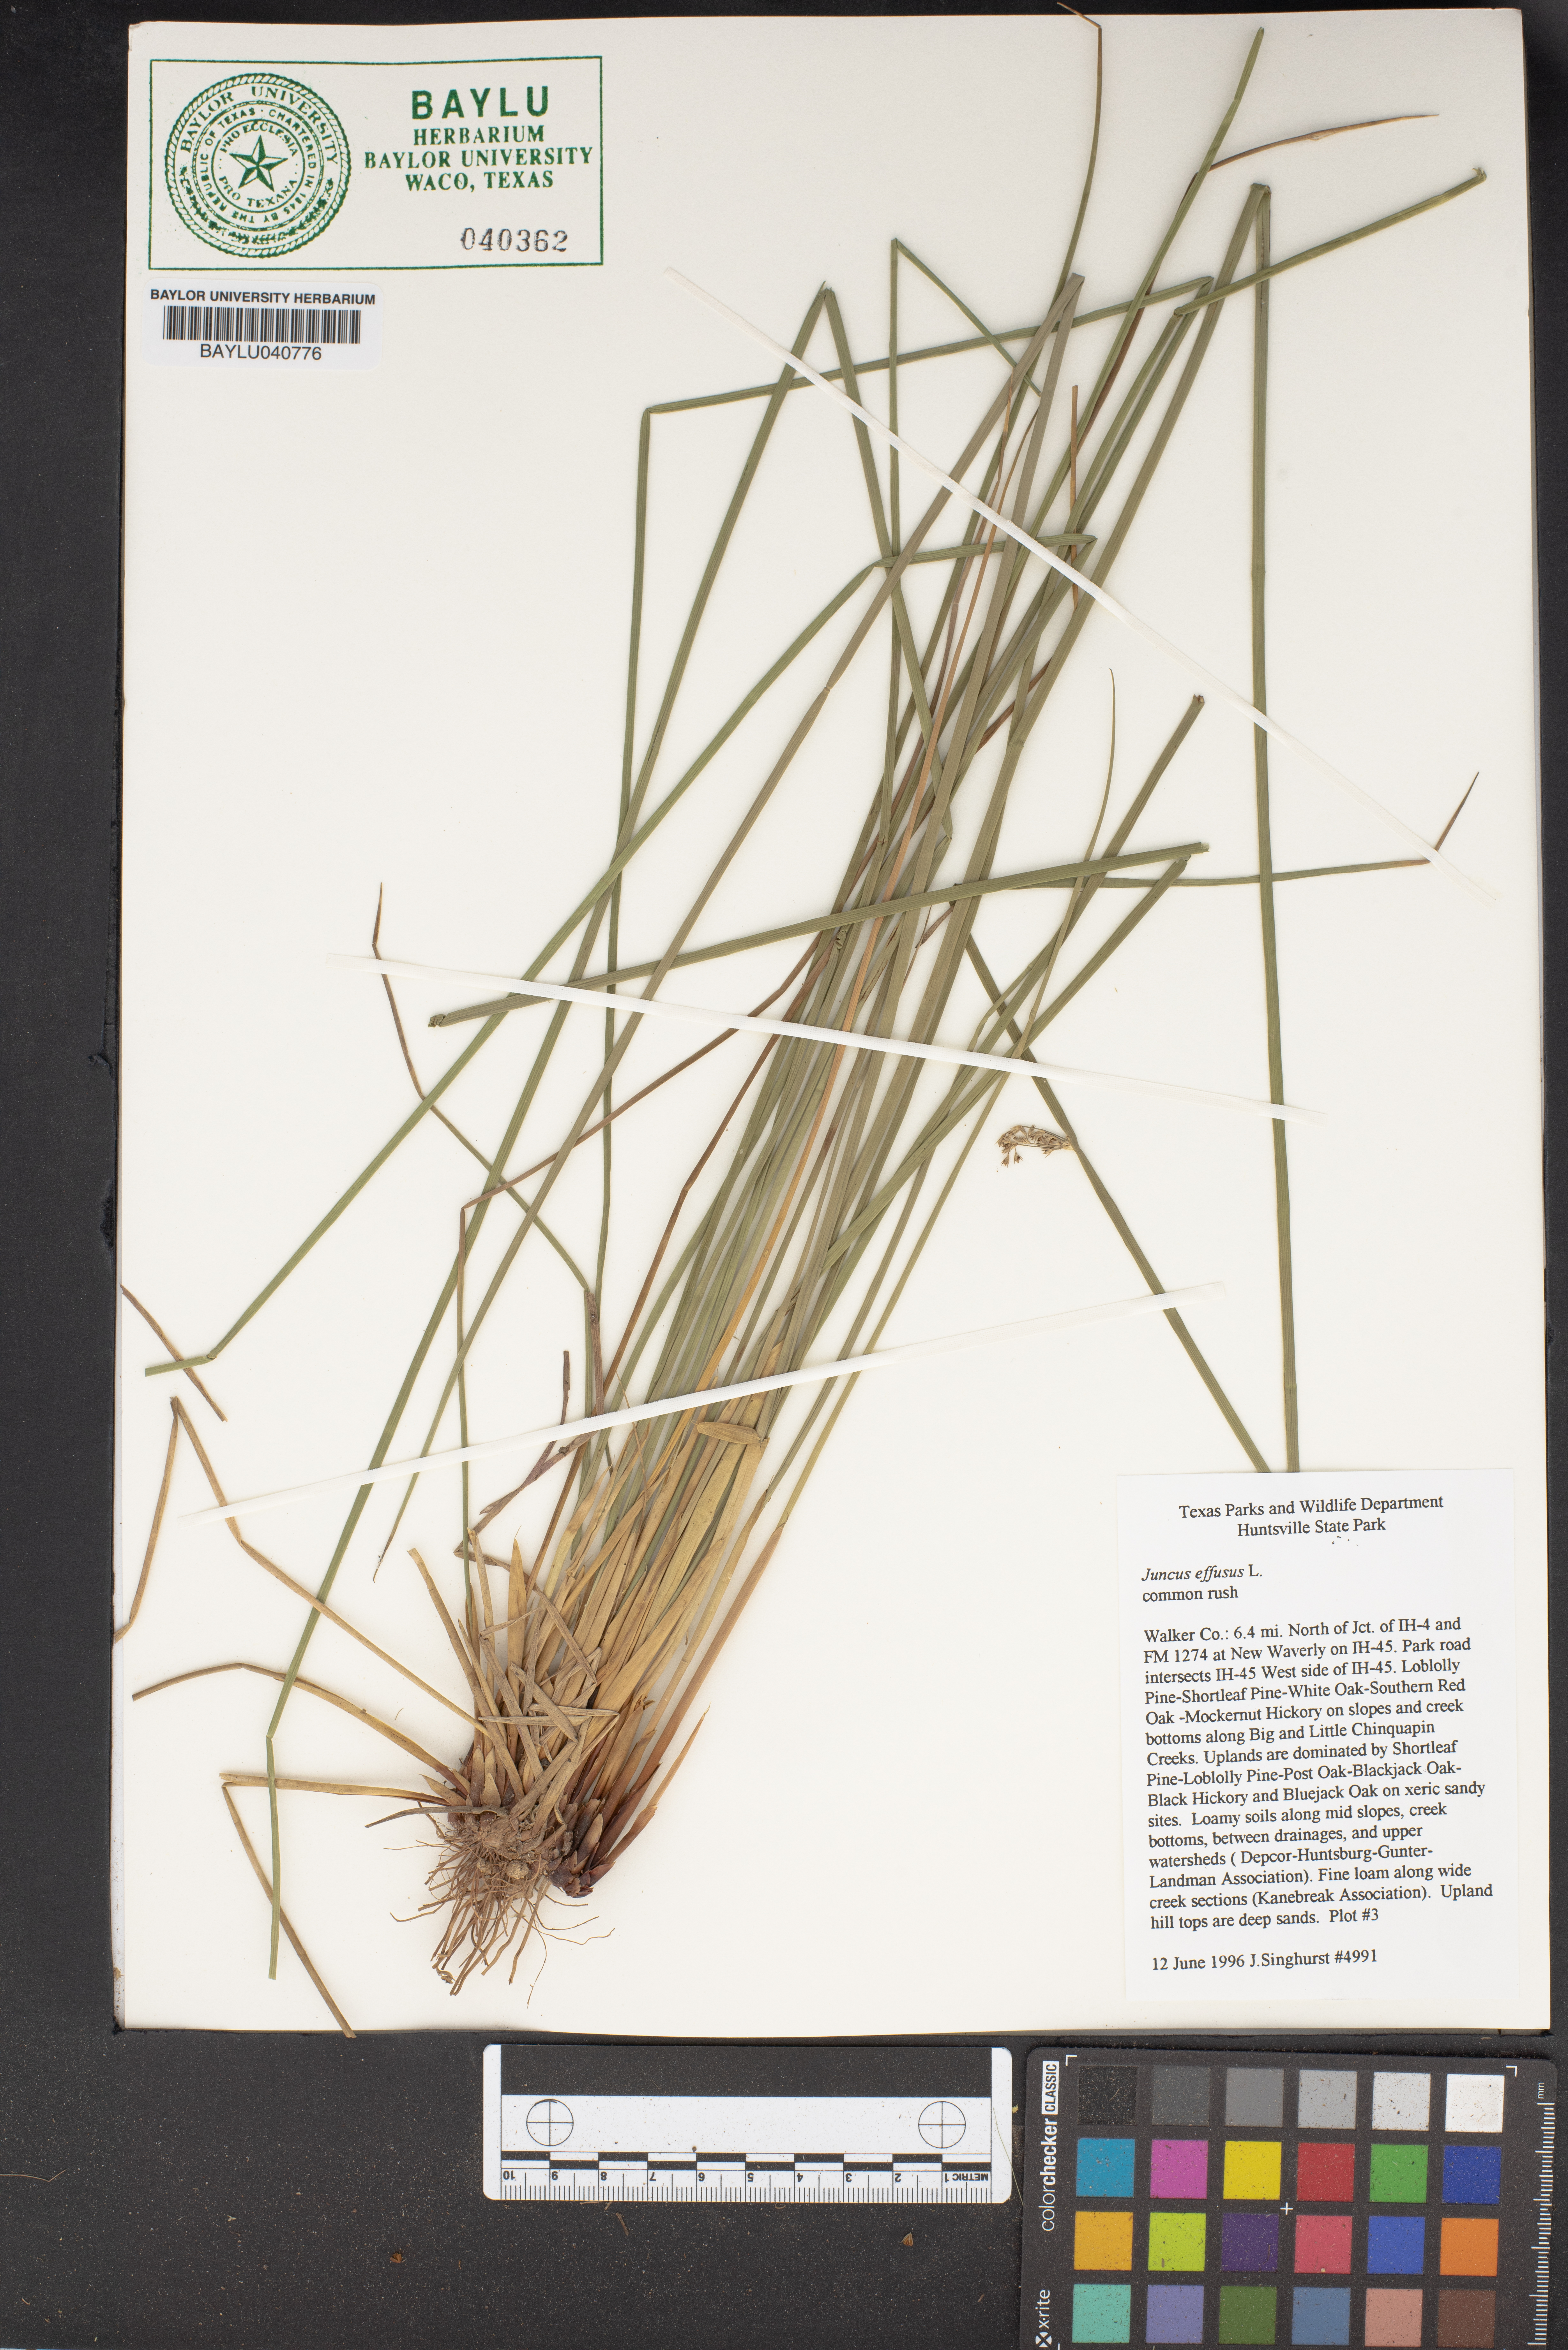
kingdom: Plantae
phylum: Tracheophyta
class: Liliopsida
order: Poales
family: Juncaceae
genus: Juncus
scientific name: Juncus effusus
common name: Soft rush
